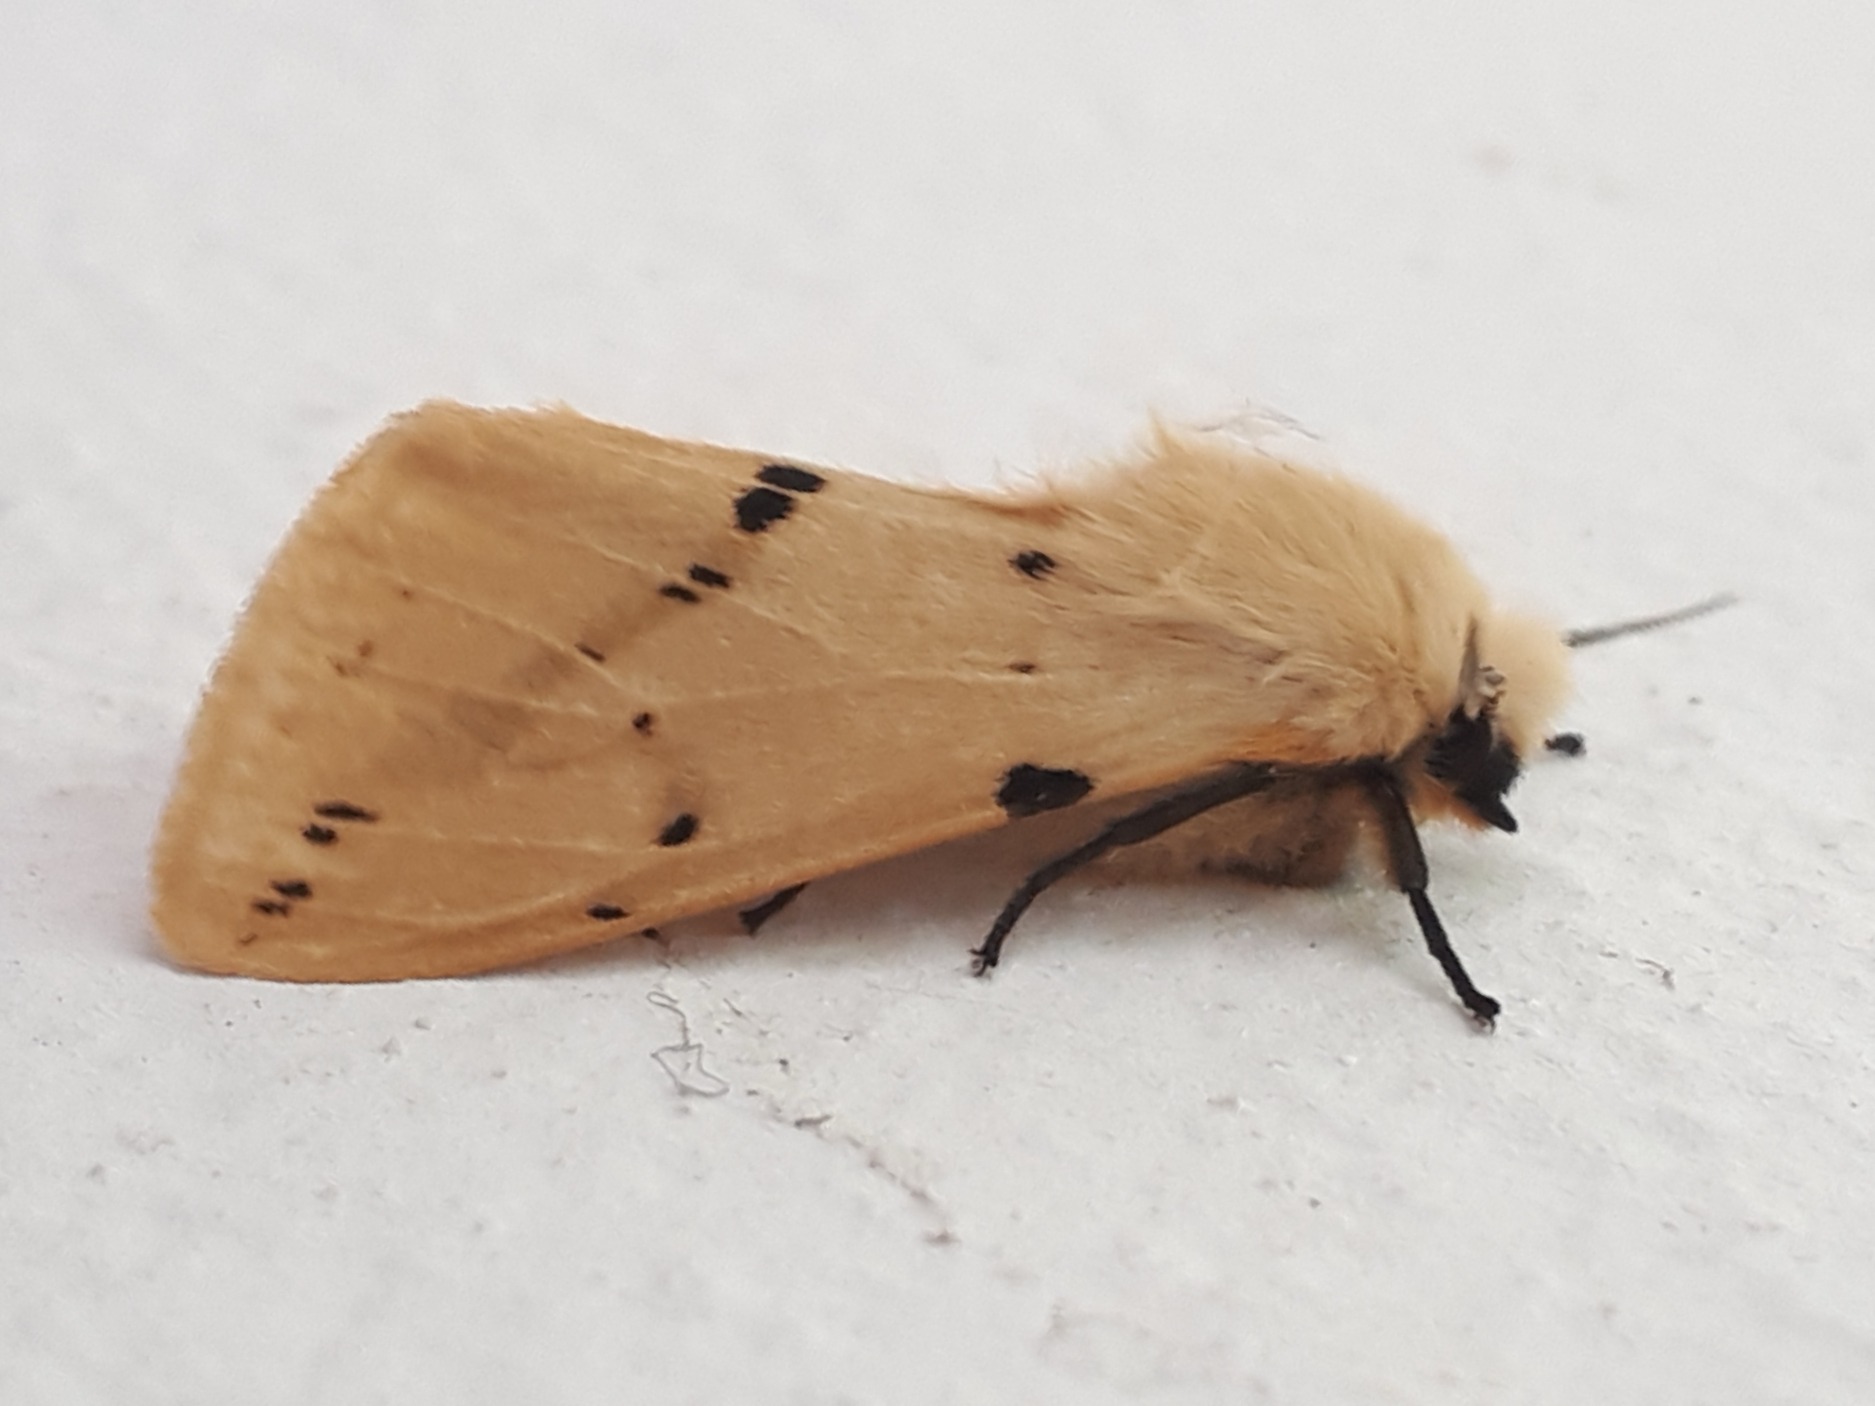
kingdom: Animalia
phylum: Arthropoda
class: Insecta
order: Lepidoptera
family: Erebidae
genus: Spilarctia
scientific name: Spilarctia lutea
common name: Gul tigerspinder
